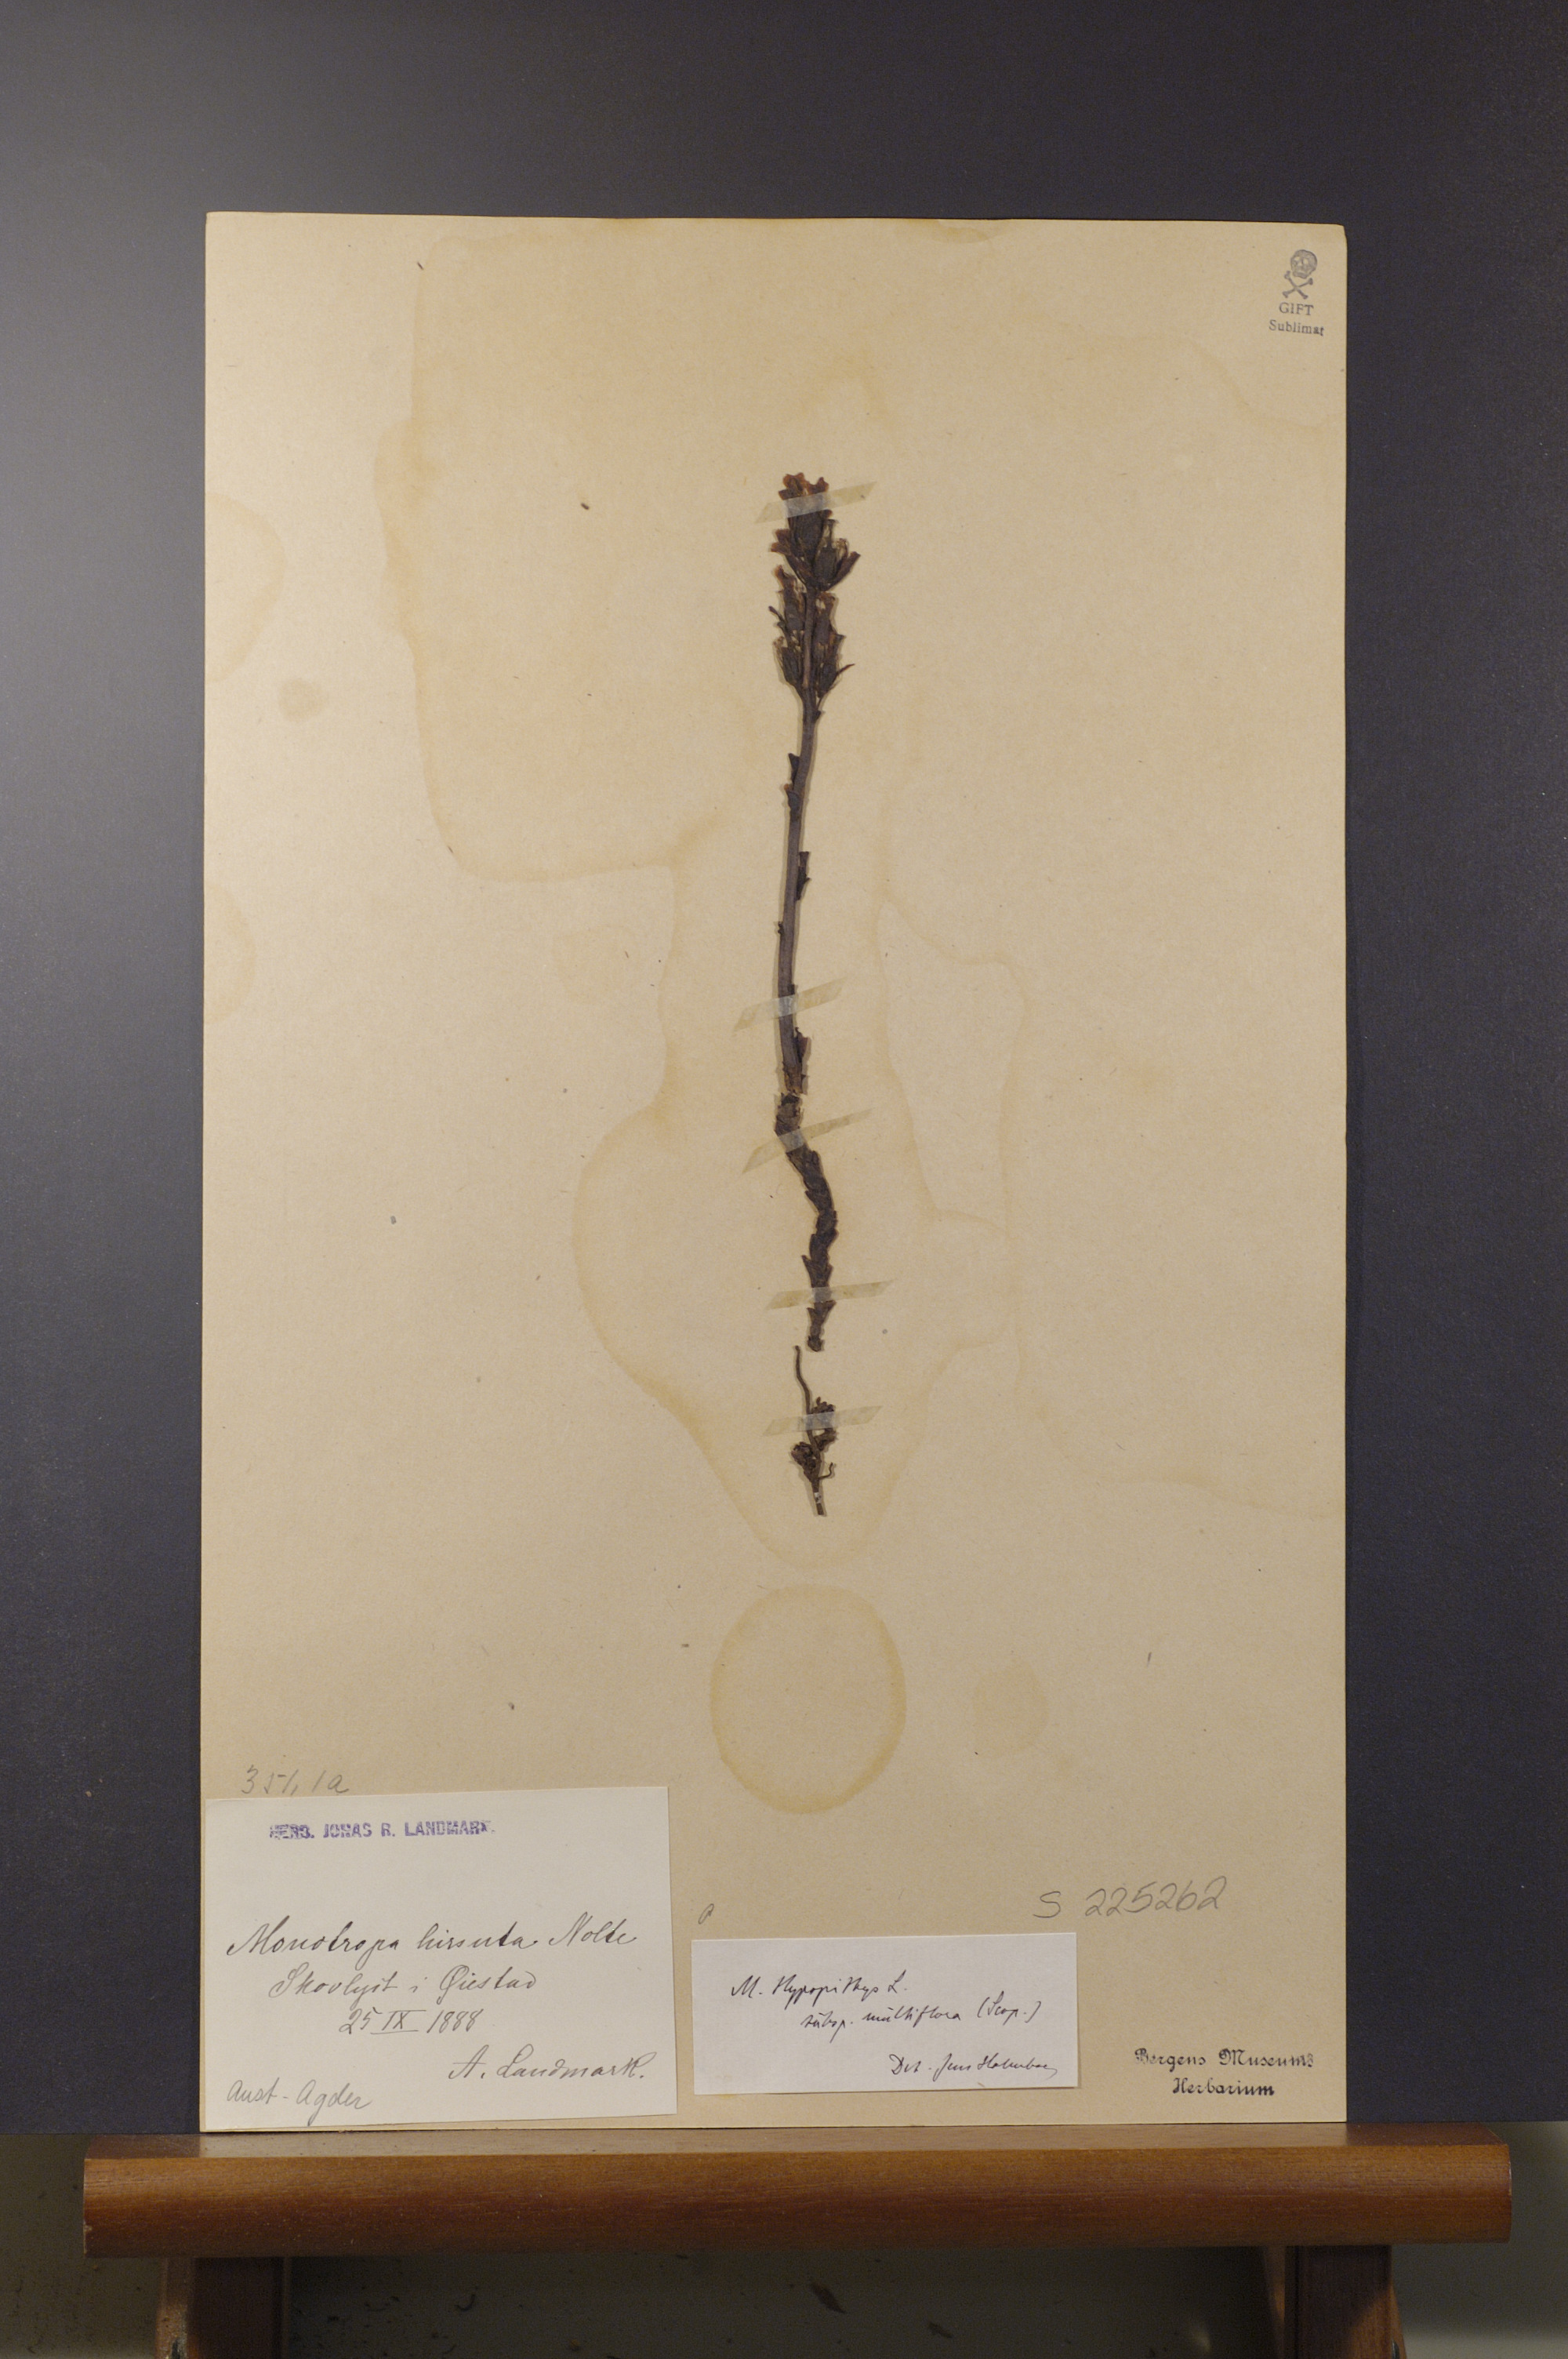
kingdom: Plantae
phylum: Tracheophyta
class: Magnoliopsida
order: Ericales
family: Ericaceae
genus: Hypopitys
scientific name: Hypopitys monotropa
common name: Yellow bird's-nest
